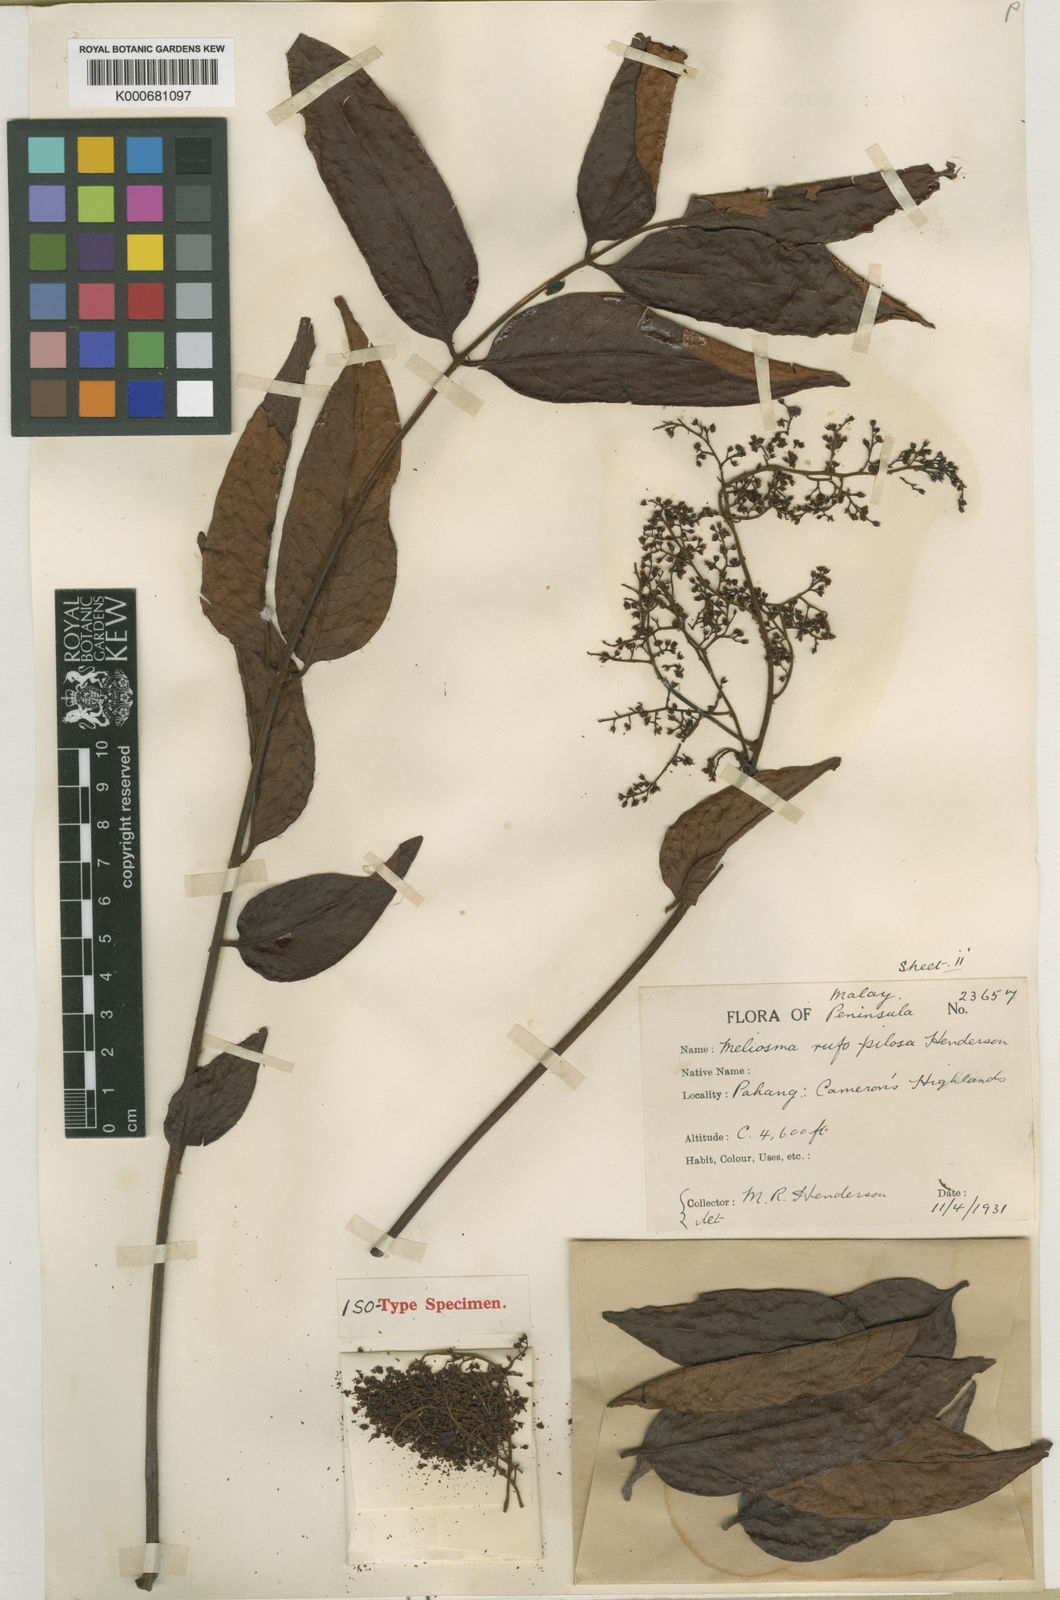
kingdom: Plantae
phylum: Tracheophyta
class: Magnoliopsida
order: Proteales
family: Sabiaceae
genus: Meliosma
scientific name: Meliosma rufopilosa
